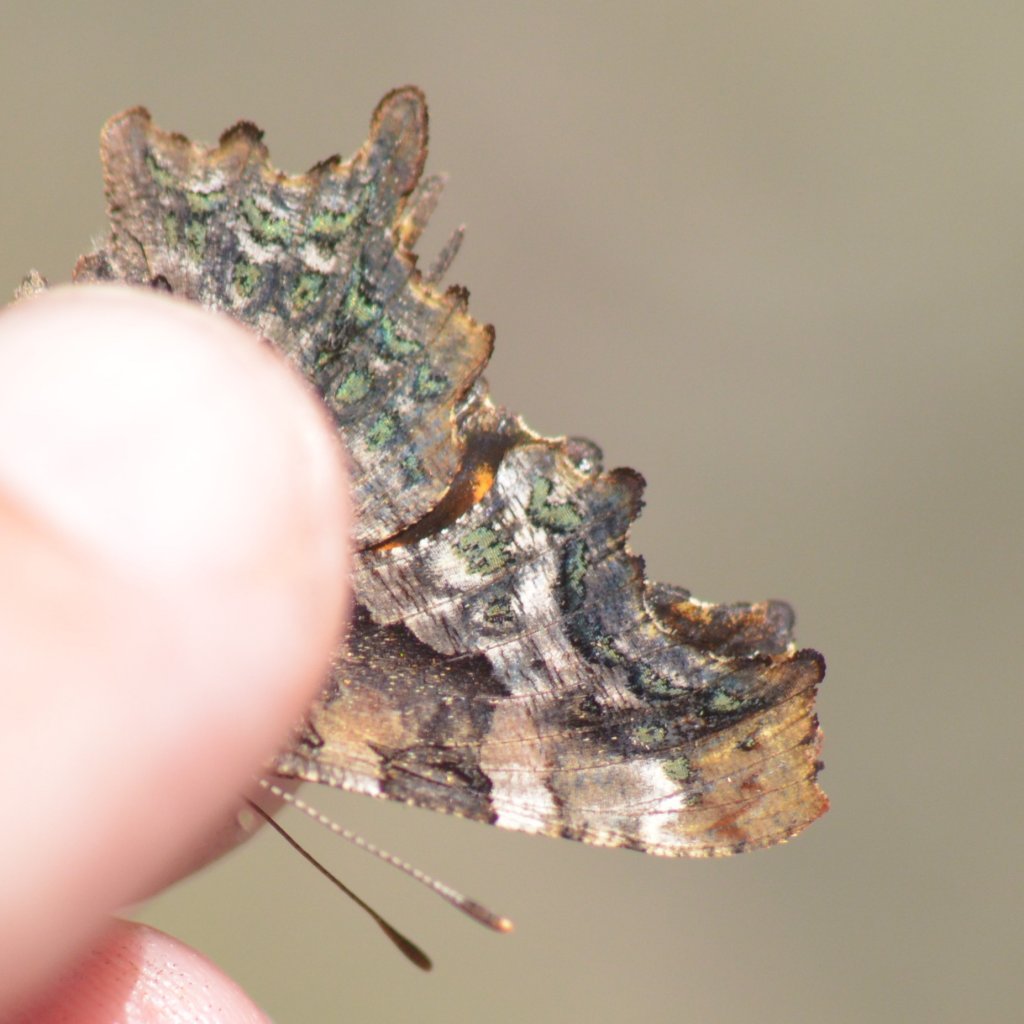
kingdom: Animalia
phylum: Arthropoda
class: Insecta
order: Lepidoptera
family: Nymphalidae
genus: Polygonia
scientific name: Polygonia faunus
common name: Green Comma
